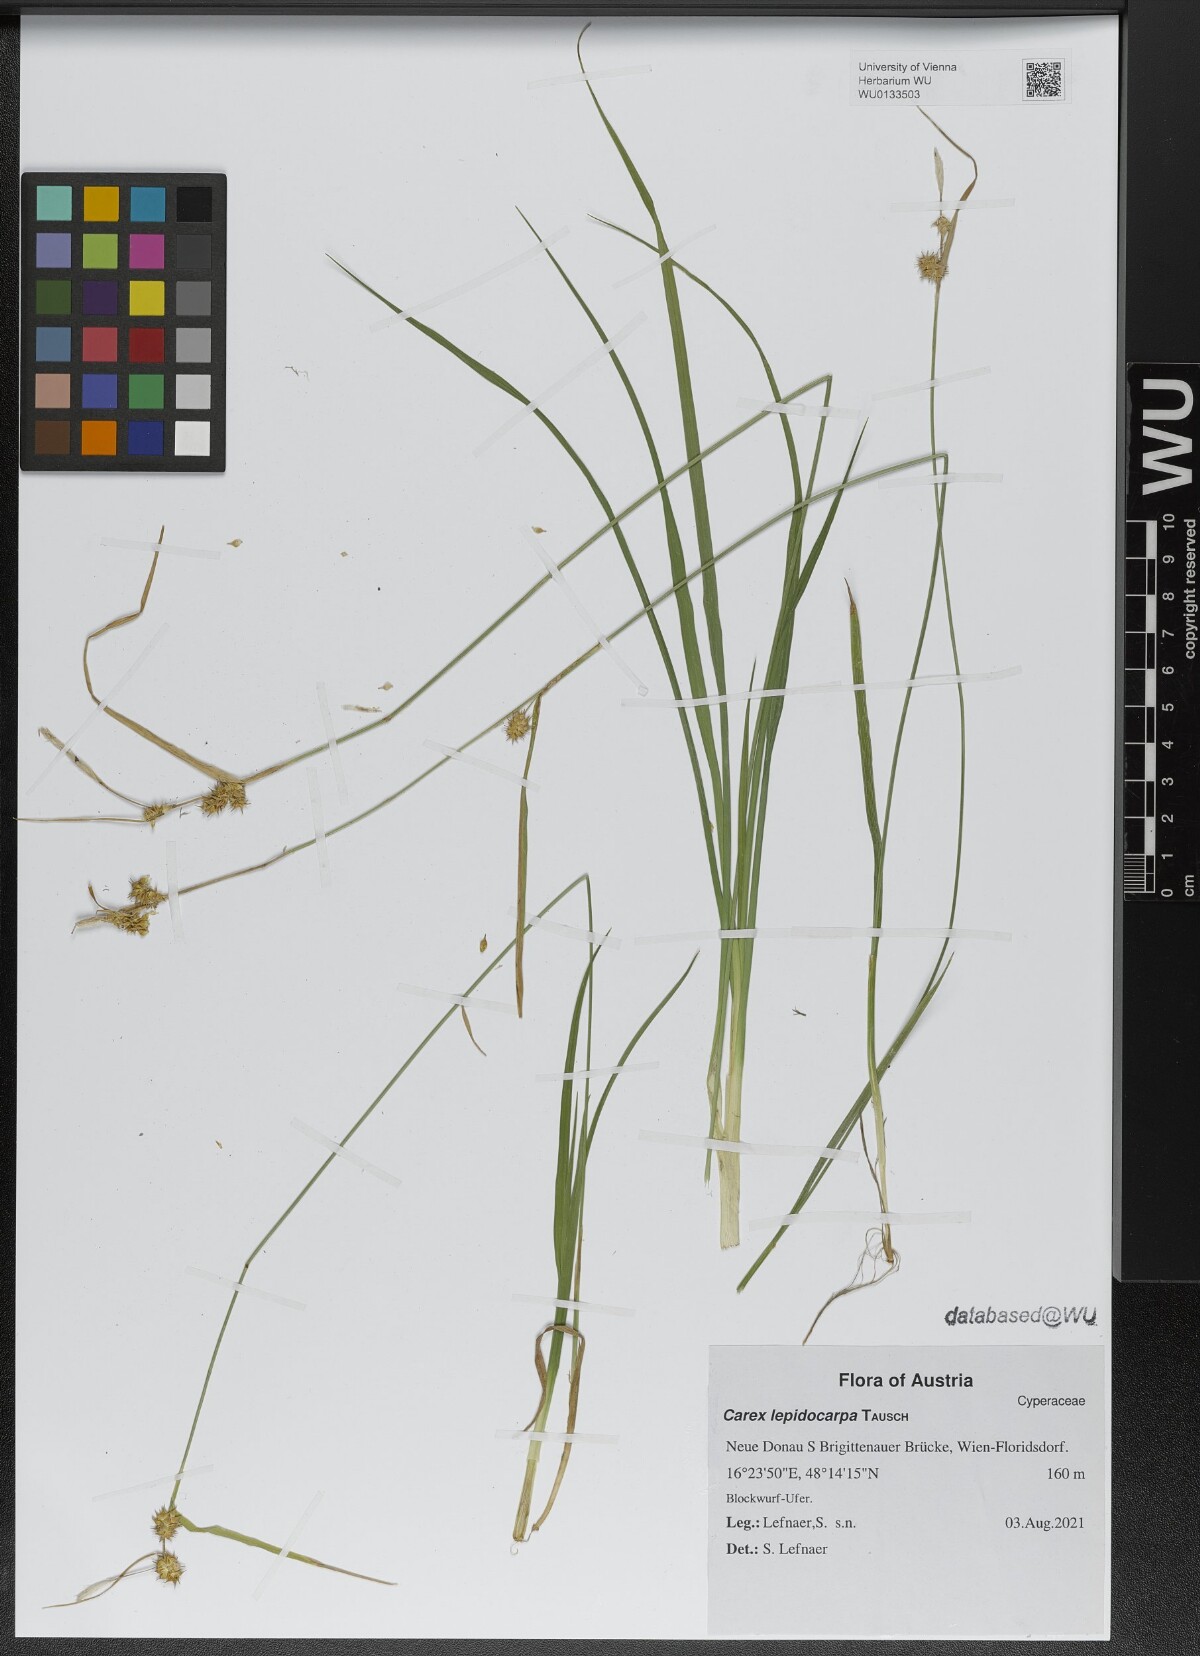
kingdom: Plantae
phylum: Tracheophyta
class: Liliopsida
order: Poales
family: Cyperaceae
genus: Carex
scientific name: Carex lepidocarpa
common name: Long-stalked yellow-sedge
